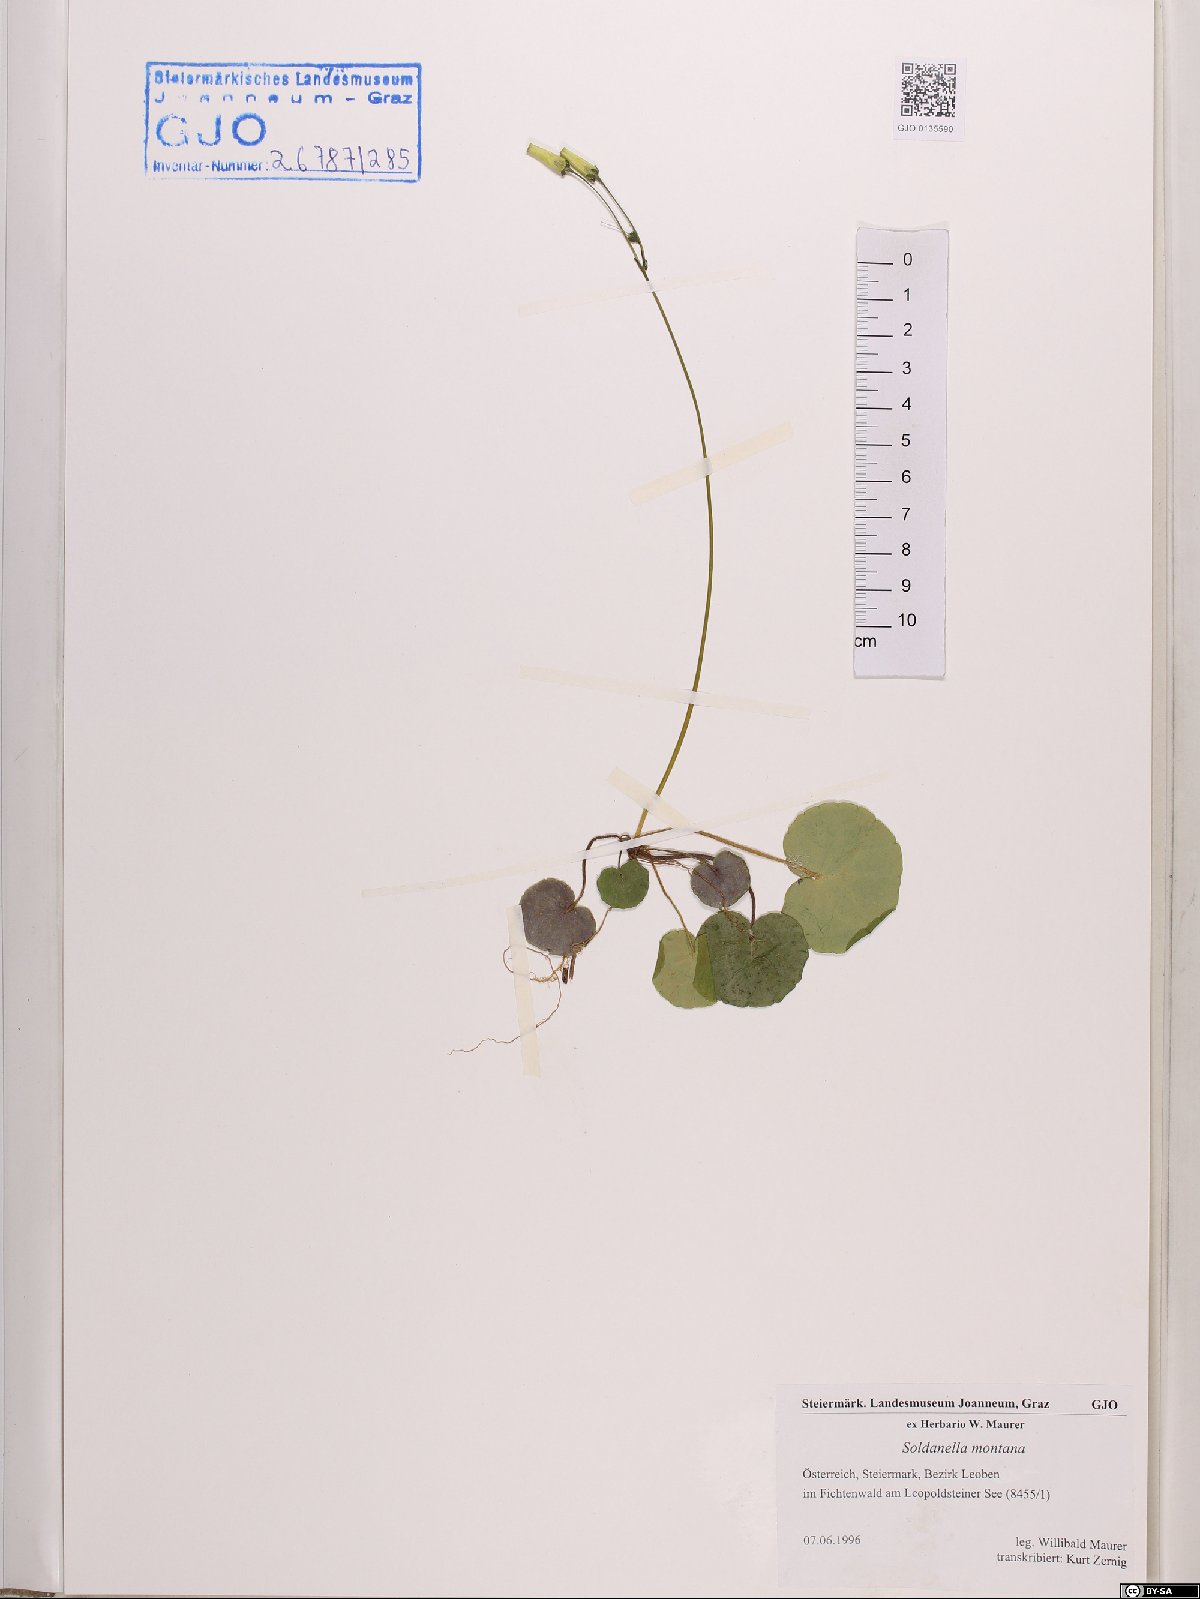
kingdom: Plantae
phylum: Tracheophyta
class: Magnoliopsida
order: Ericales
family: Primulaceae
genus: Soldanella
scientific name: Soldanella montana
